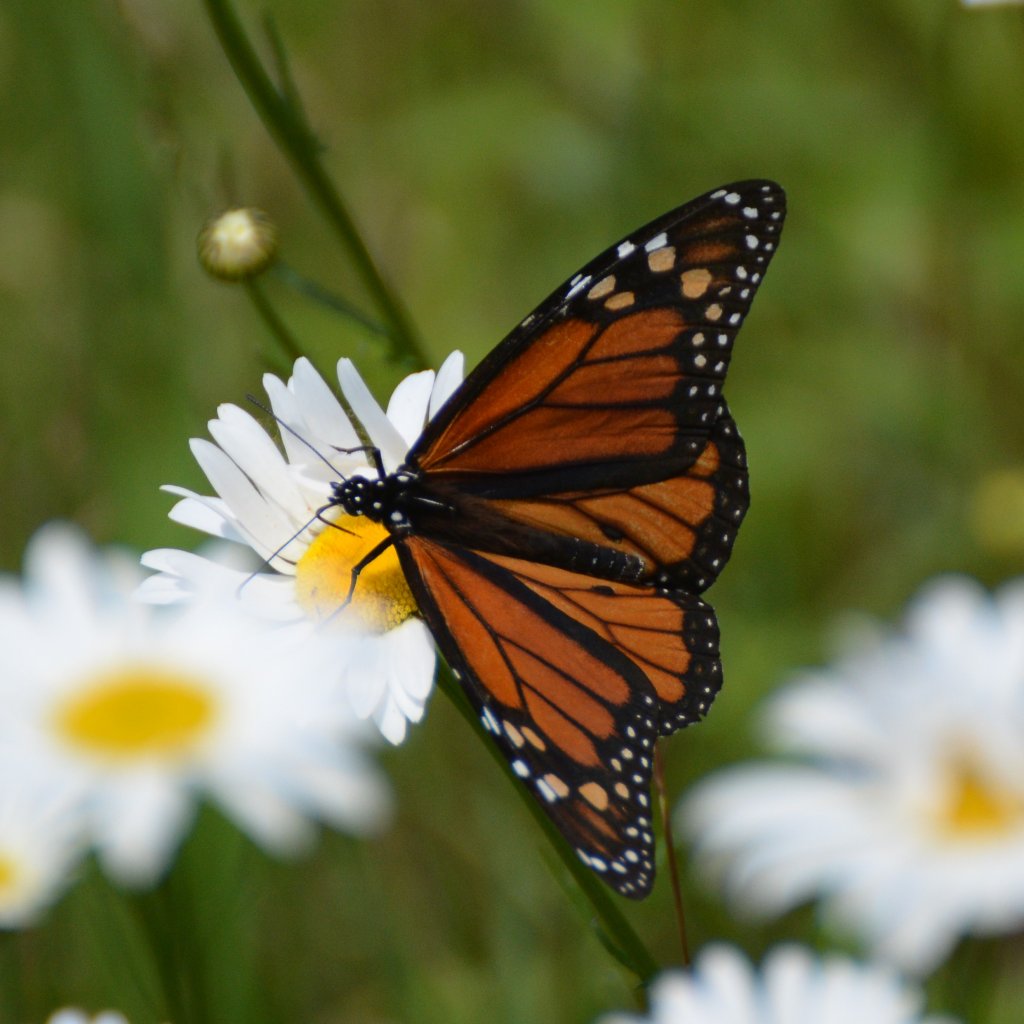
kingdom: Animalia
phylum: Arthropoda
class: Insecta
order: Lepidoptera
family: Nymphalidae
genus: Danaus
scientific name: Danaus plexippus
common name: Monarch
